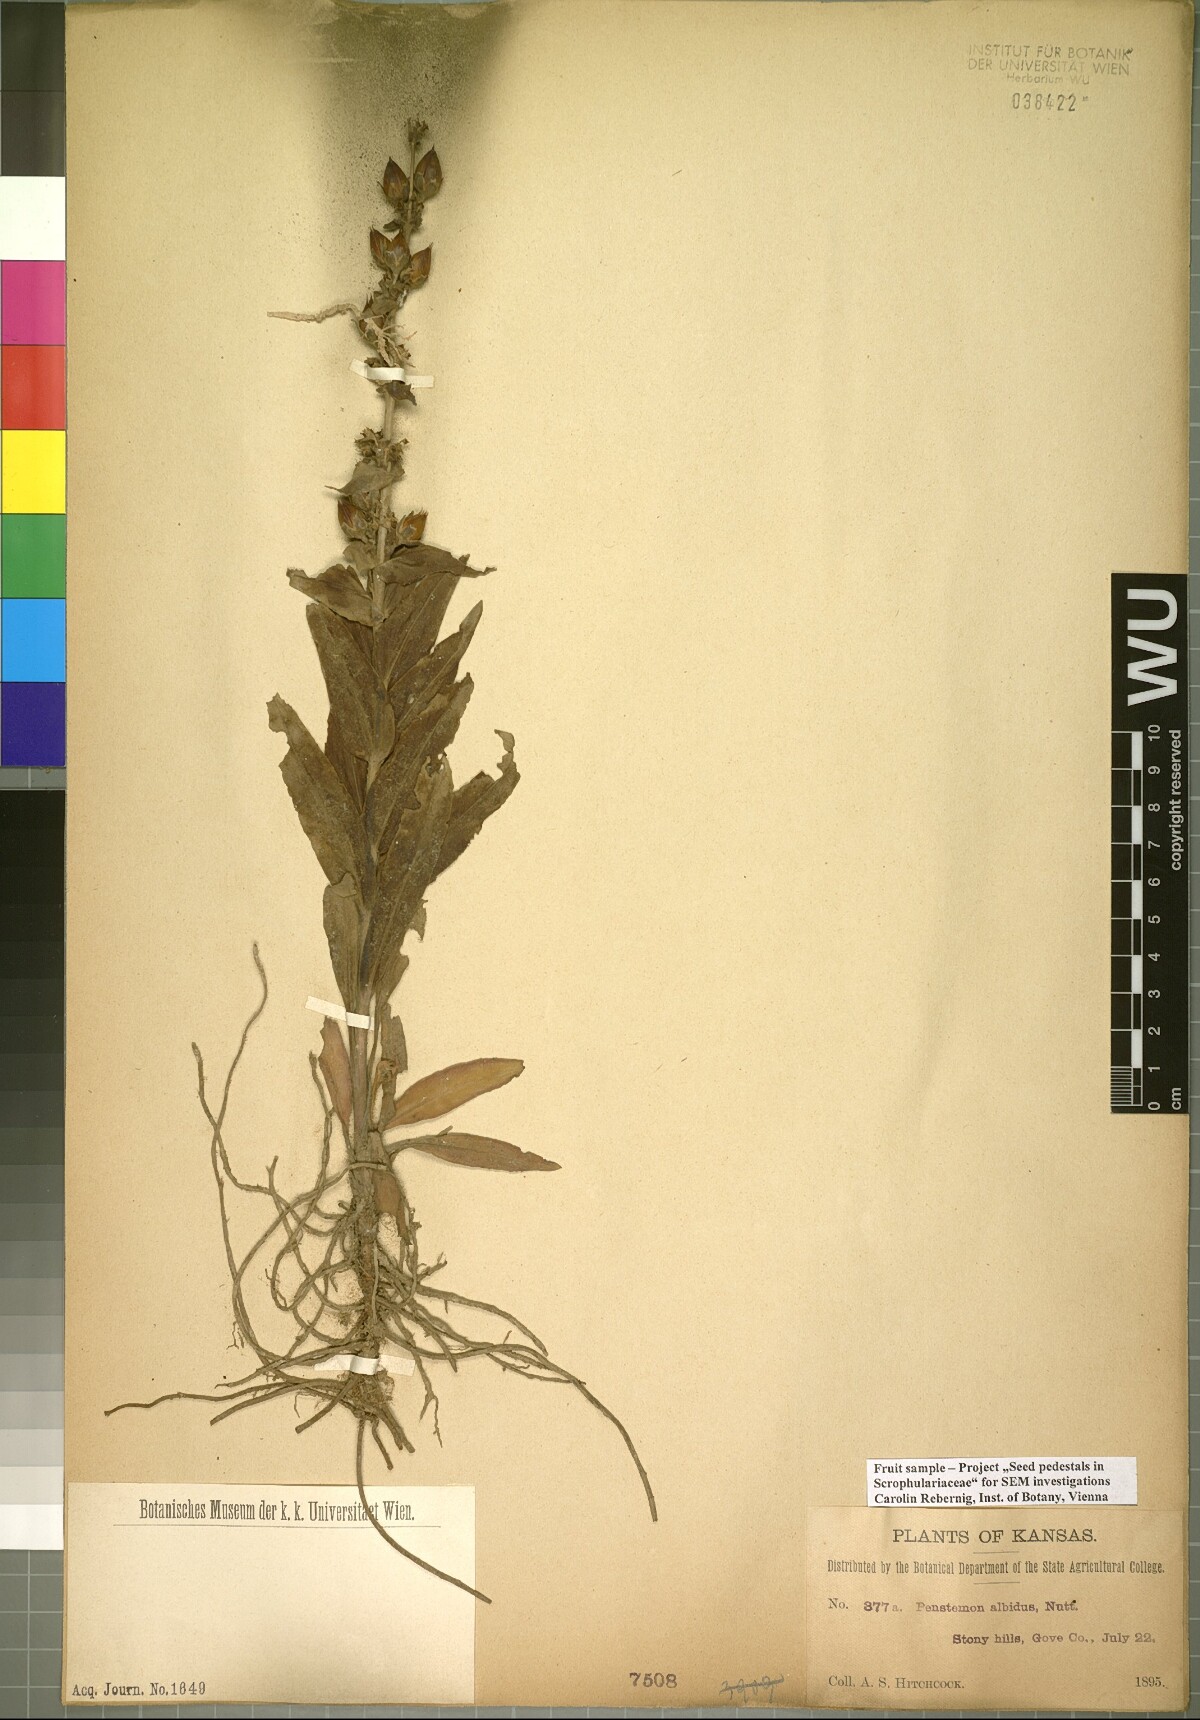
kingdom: Plantae
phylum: Tracheophyta
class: Magnoliopsida
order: Lamiales
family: Plantaginaceae
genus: Penstemon
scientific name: Penstemon albidus
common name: White beardtongue
